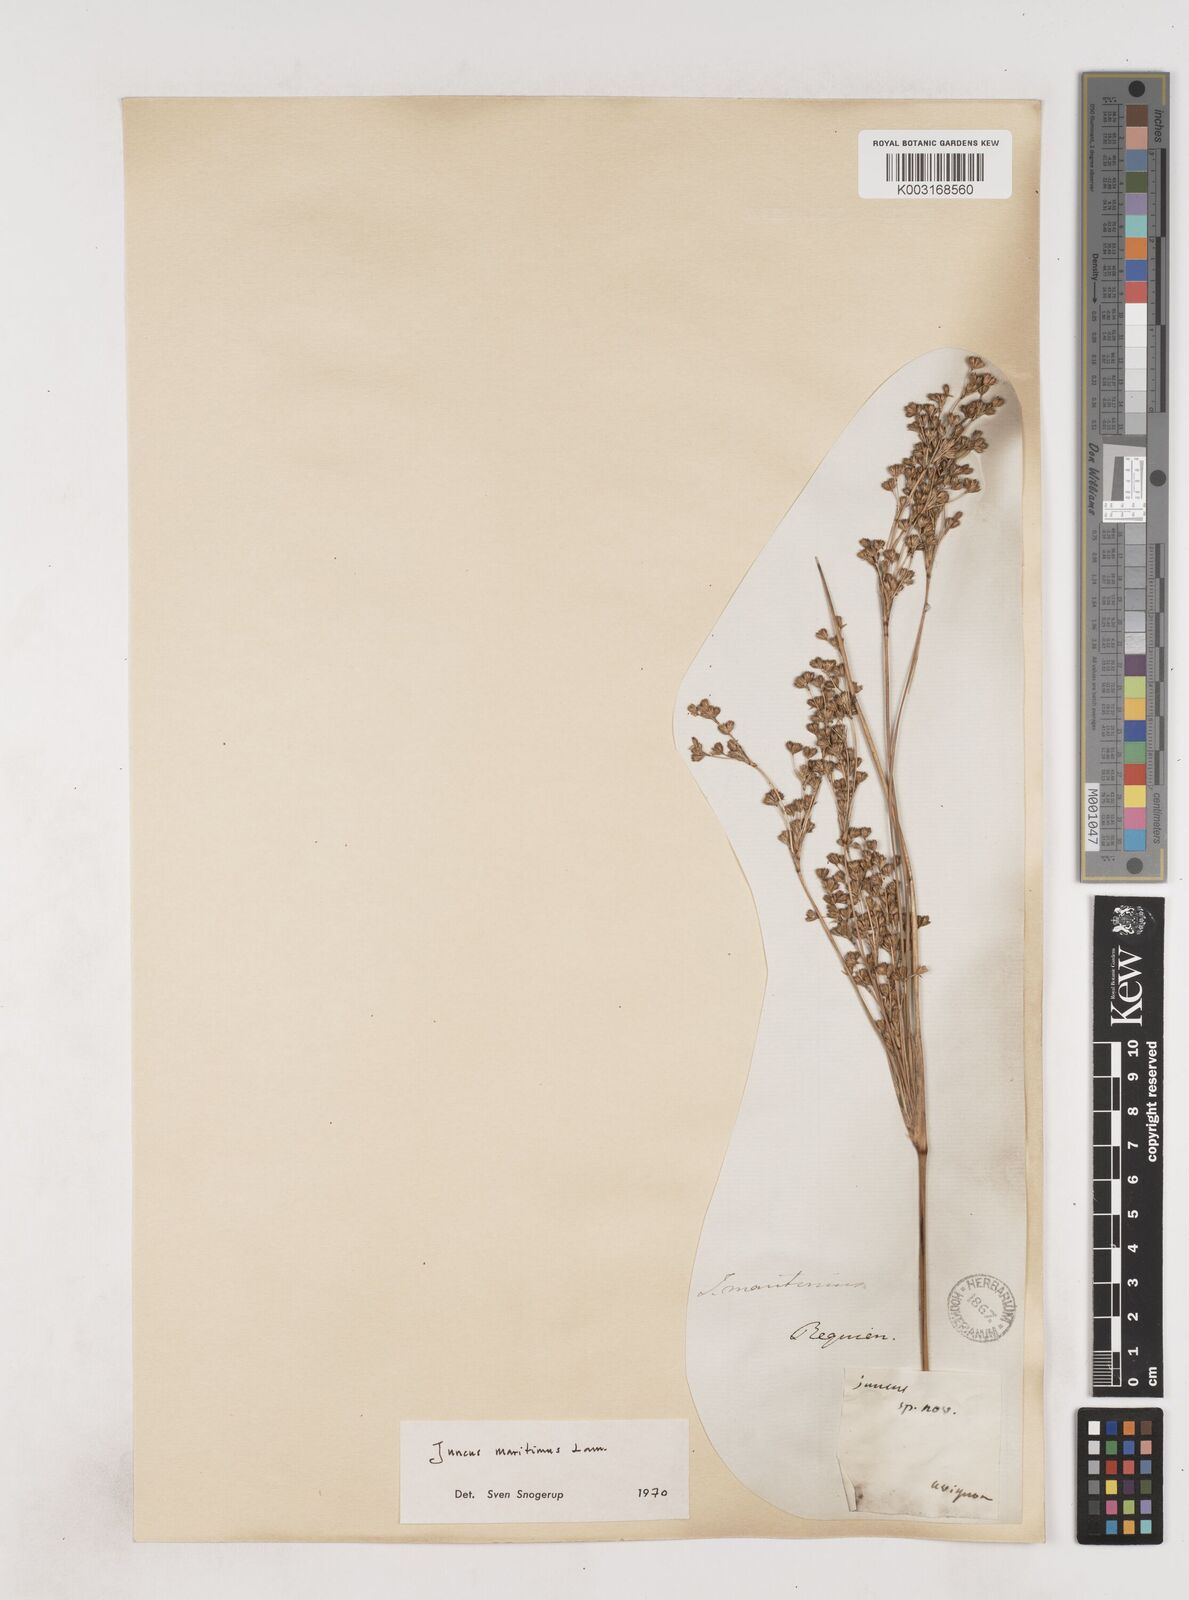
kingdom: Plantae
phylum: Tracheophyta
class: Liliopsida
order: Poales
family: Juncaceae
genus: Juncus
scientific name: Juncus maritimus
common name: Sea rush
